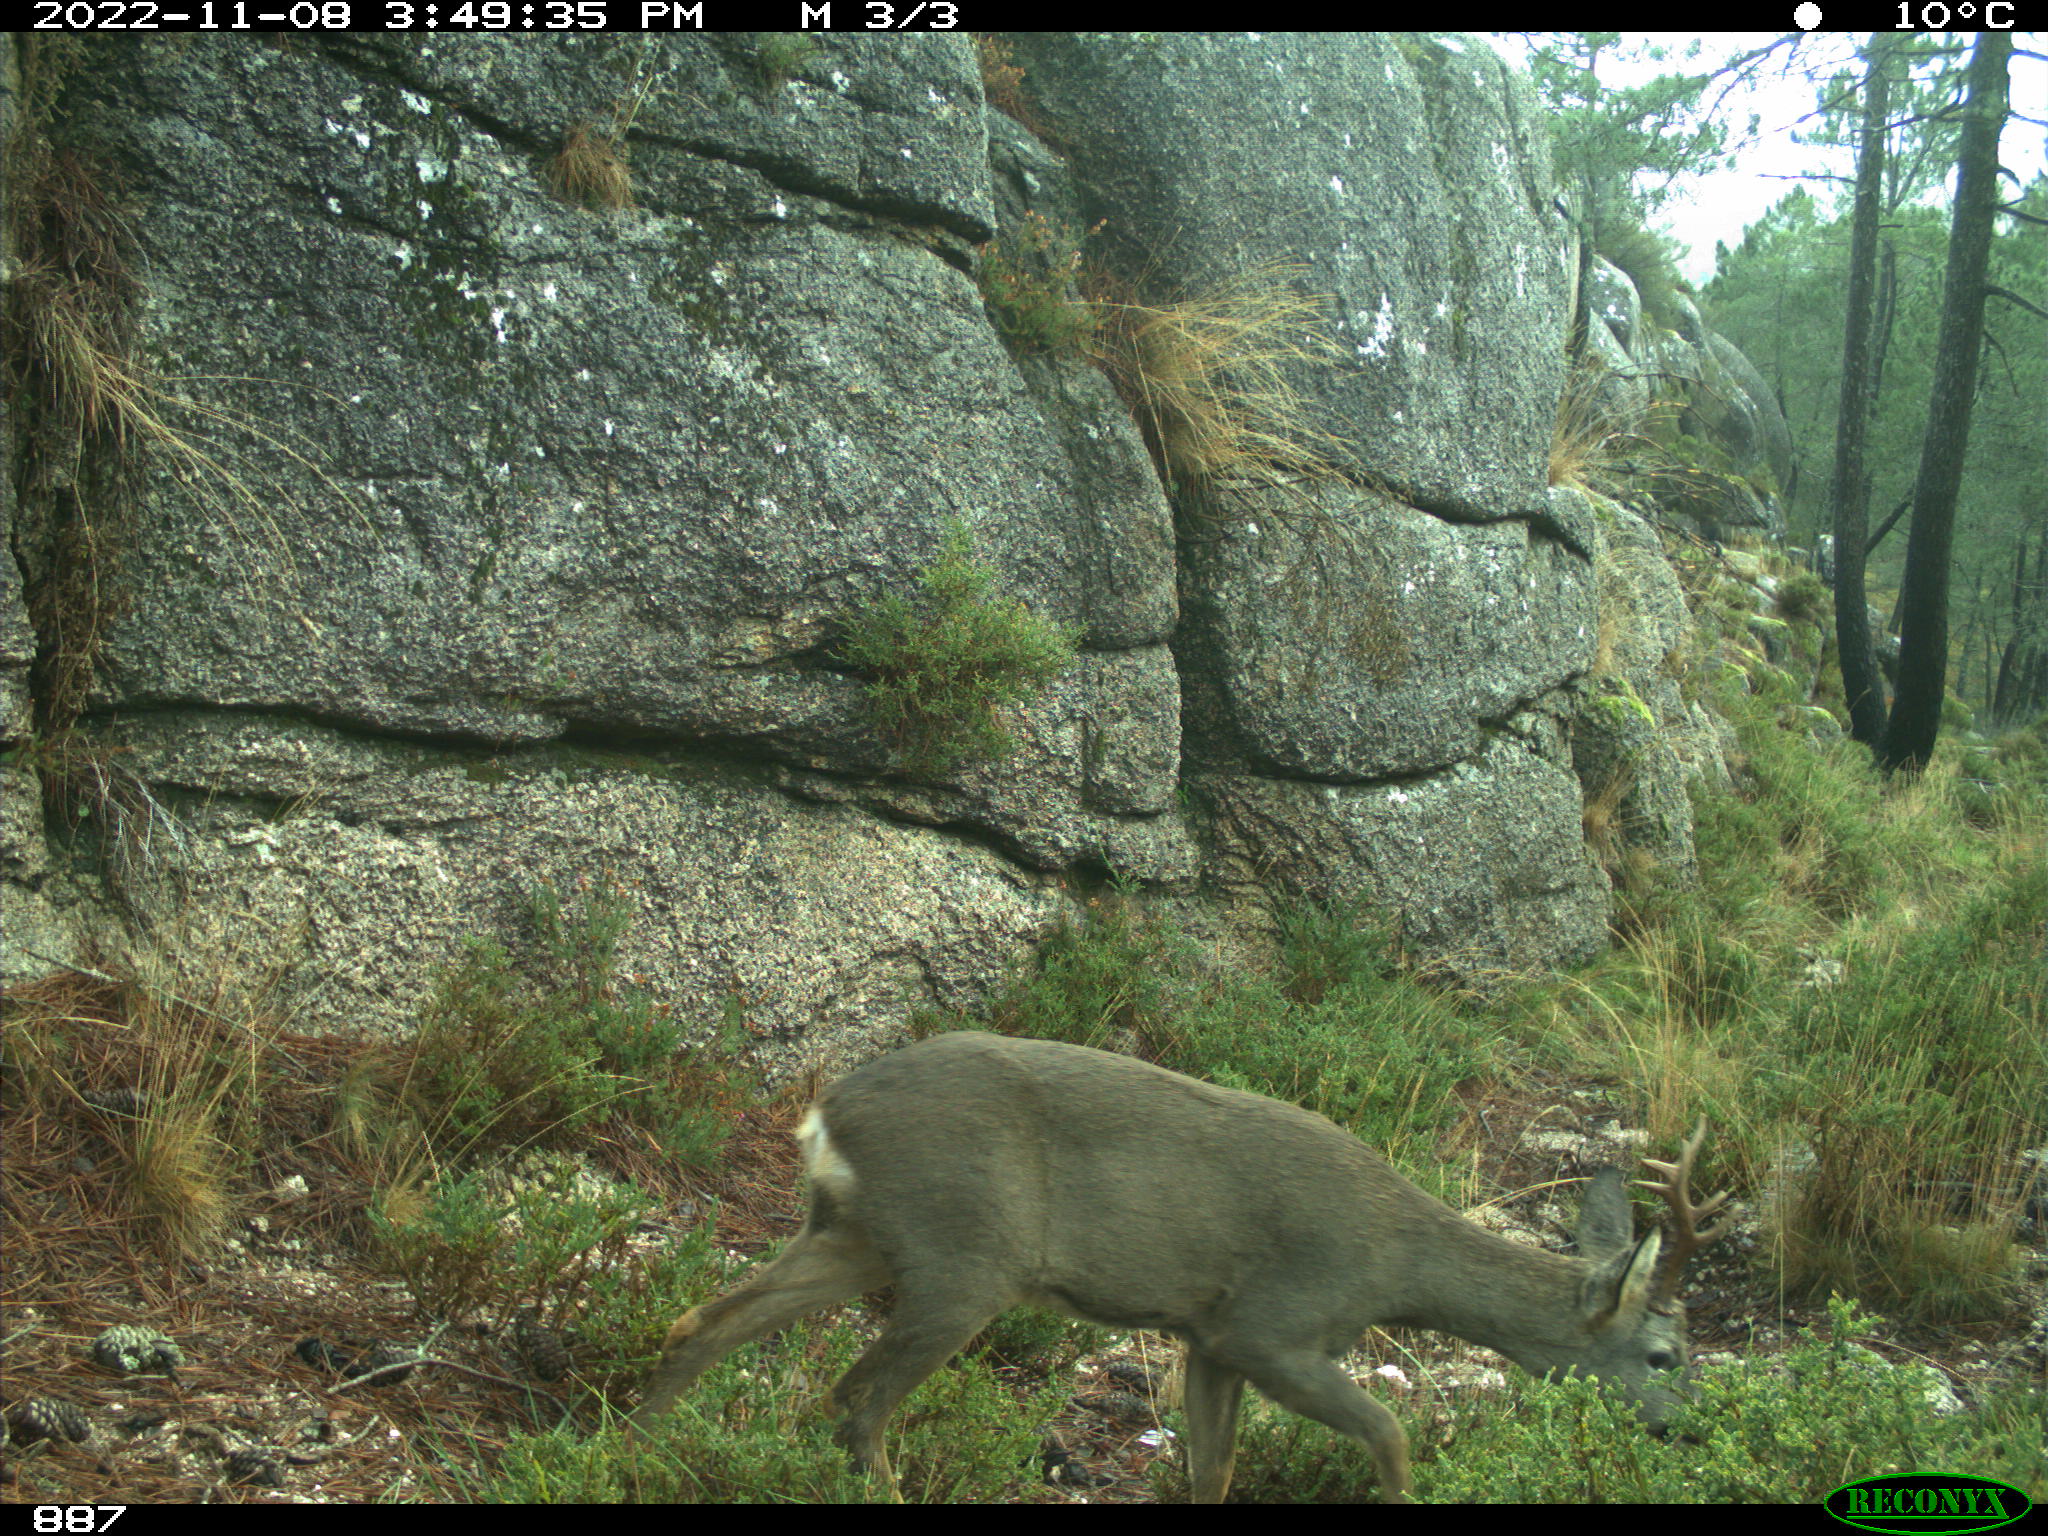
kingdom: Animalia
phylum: Chordata
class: Mammalia
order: Artiodactyla
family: Cervidae
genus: Capreolus
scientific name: Capreolus capreolus
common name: Western roe deer
